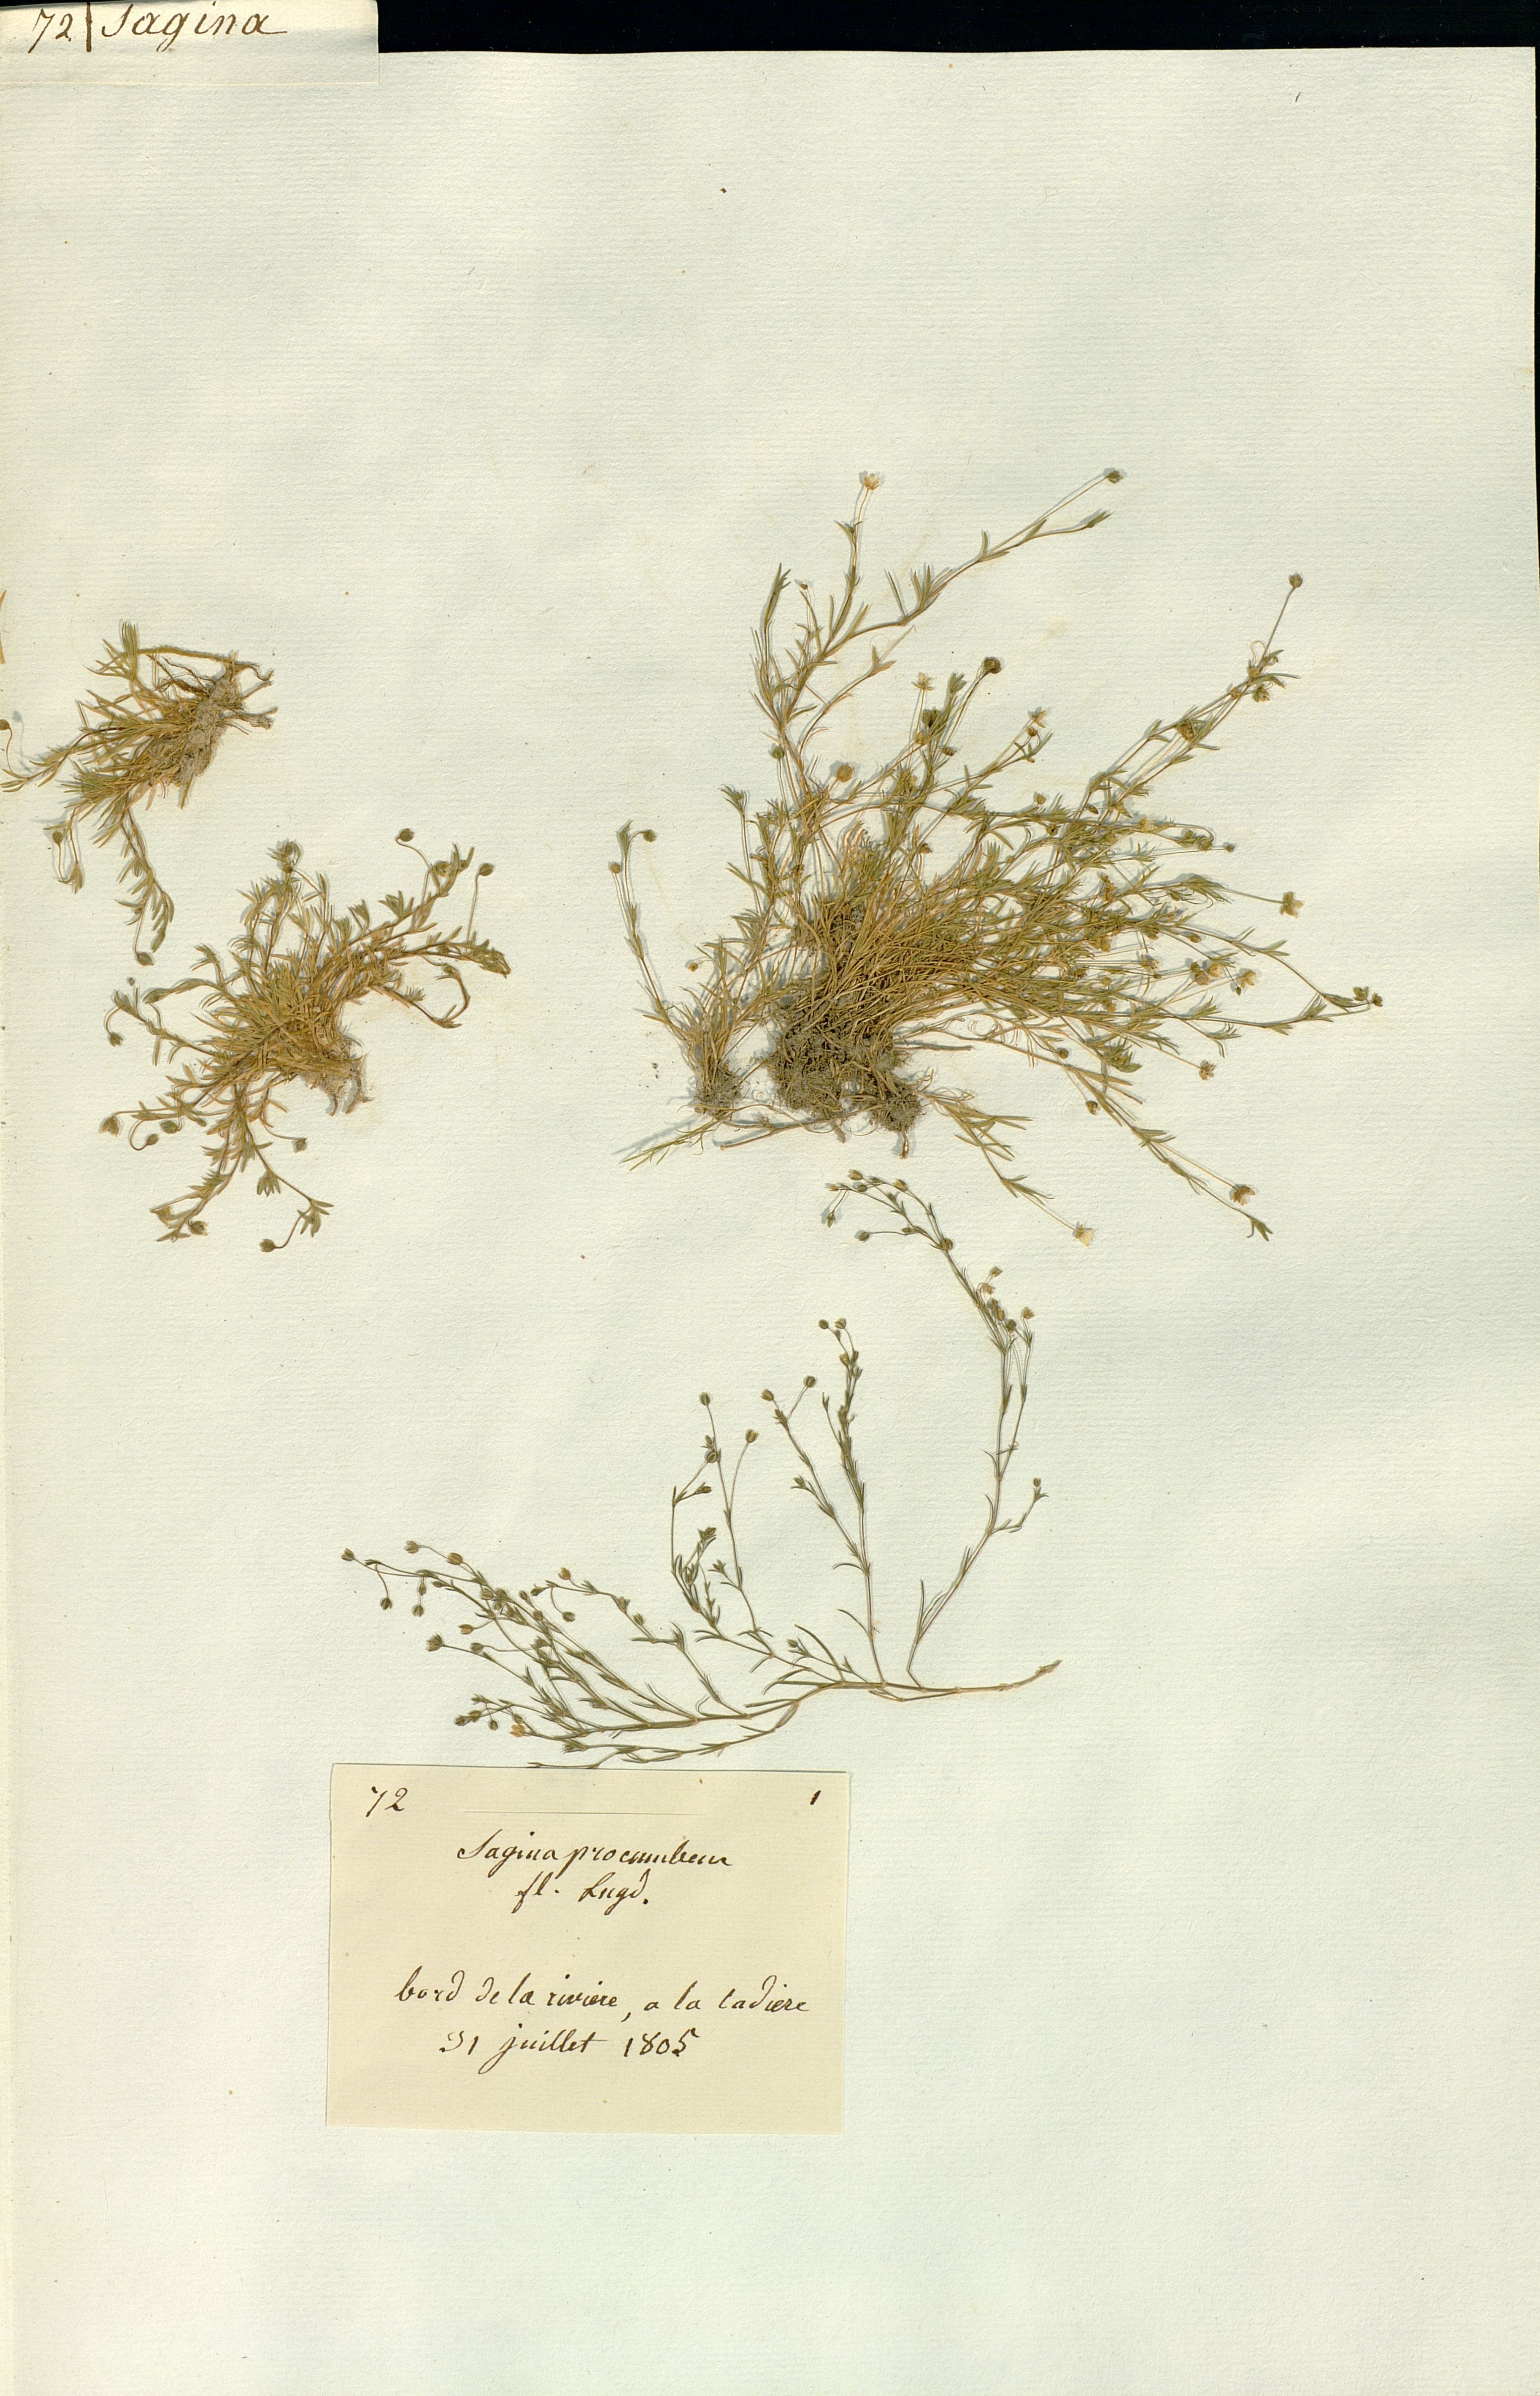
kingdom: Plantae
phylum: Tracheophyta
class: Magnoliopsida
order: Caryophyllales
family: Caryophyllaceae
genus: Sagina
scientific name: Sagina procumbens
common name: Procumbent pearlwort
